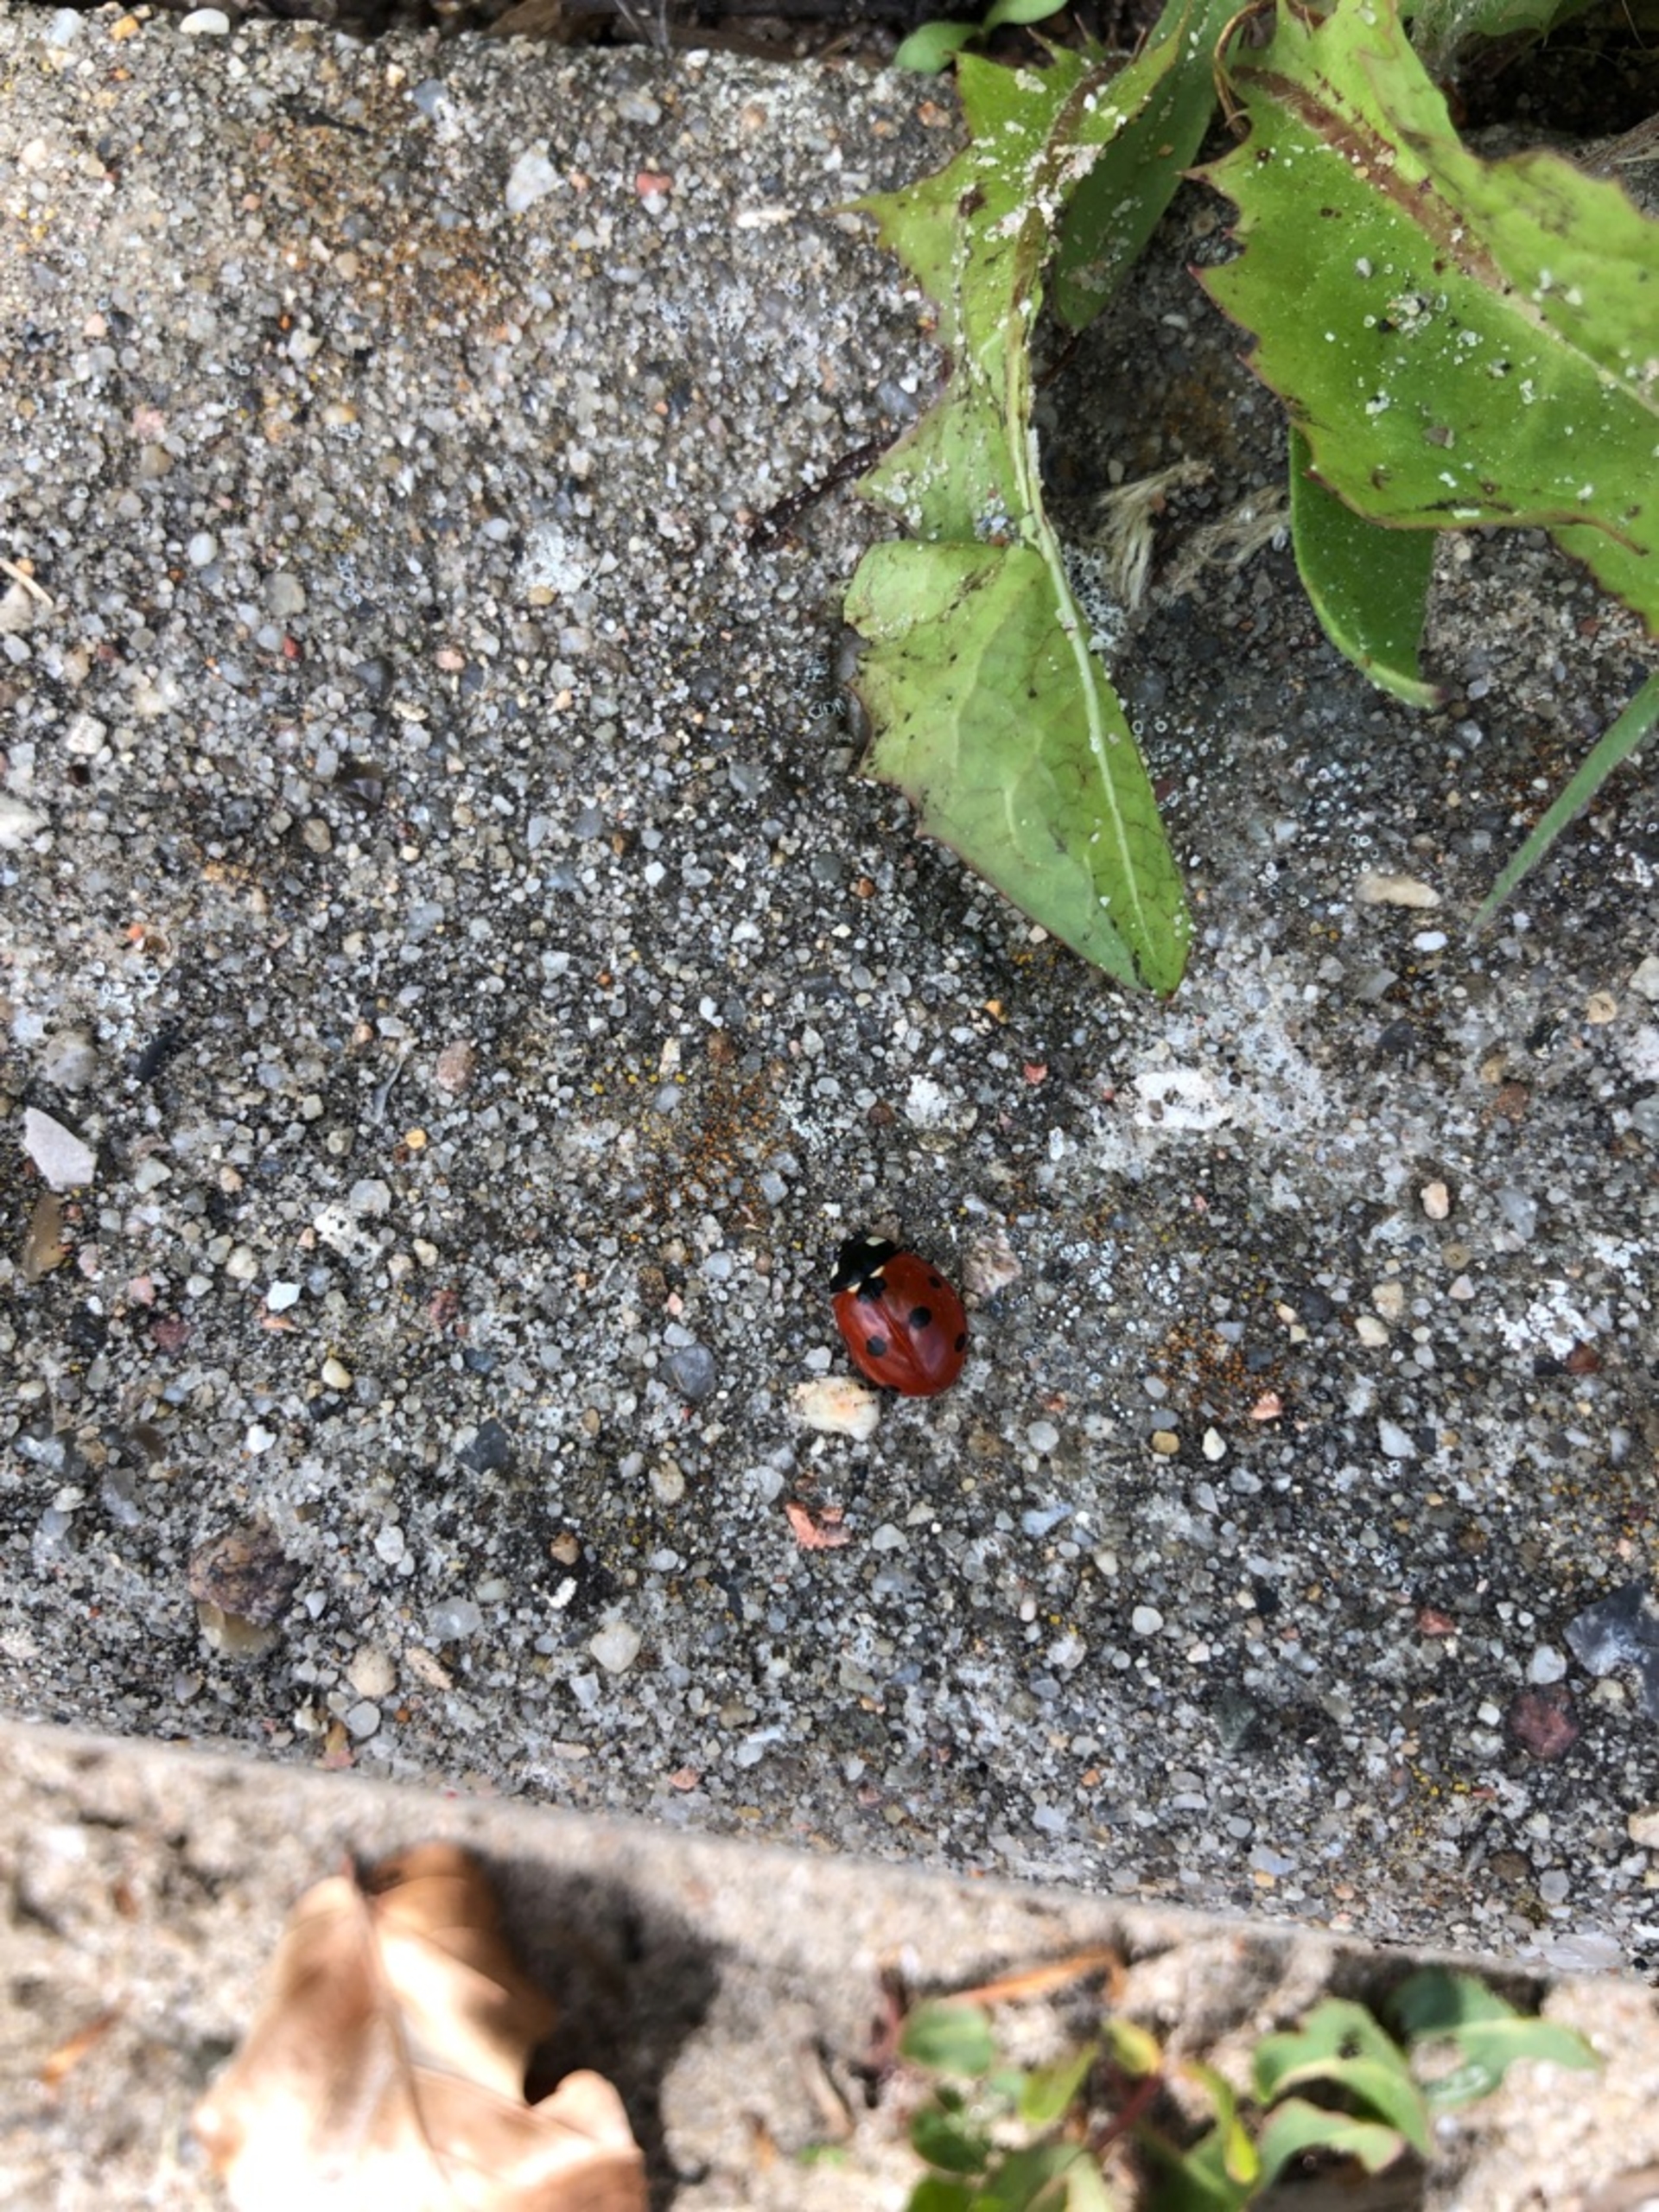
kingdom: Animalia
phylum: Arthropoda
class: Insecta
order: Coleoptera
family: Coccinellidae
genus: Coccinella
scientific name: Coccinella septempunctata
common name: Syvplettet mariehøne
